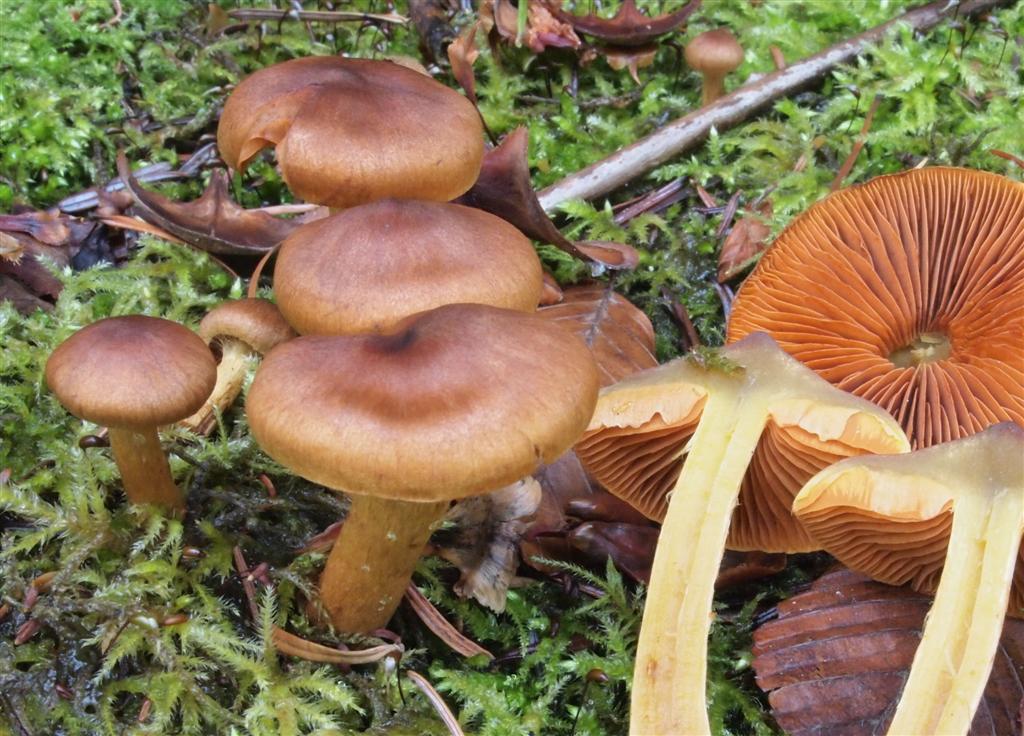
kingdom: Fungi
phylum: Basidiomycota
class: Agaricomycetes
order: Agaricales
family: Cortinariaceae
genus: Cortinarius
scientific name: Cortinarius malicorius
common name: grønkødet slørhat
